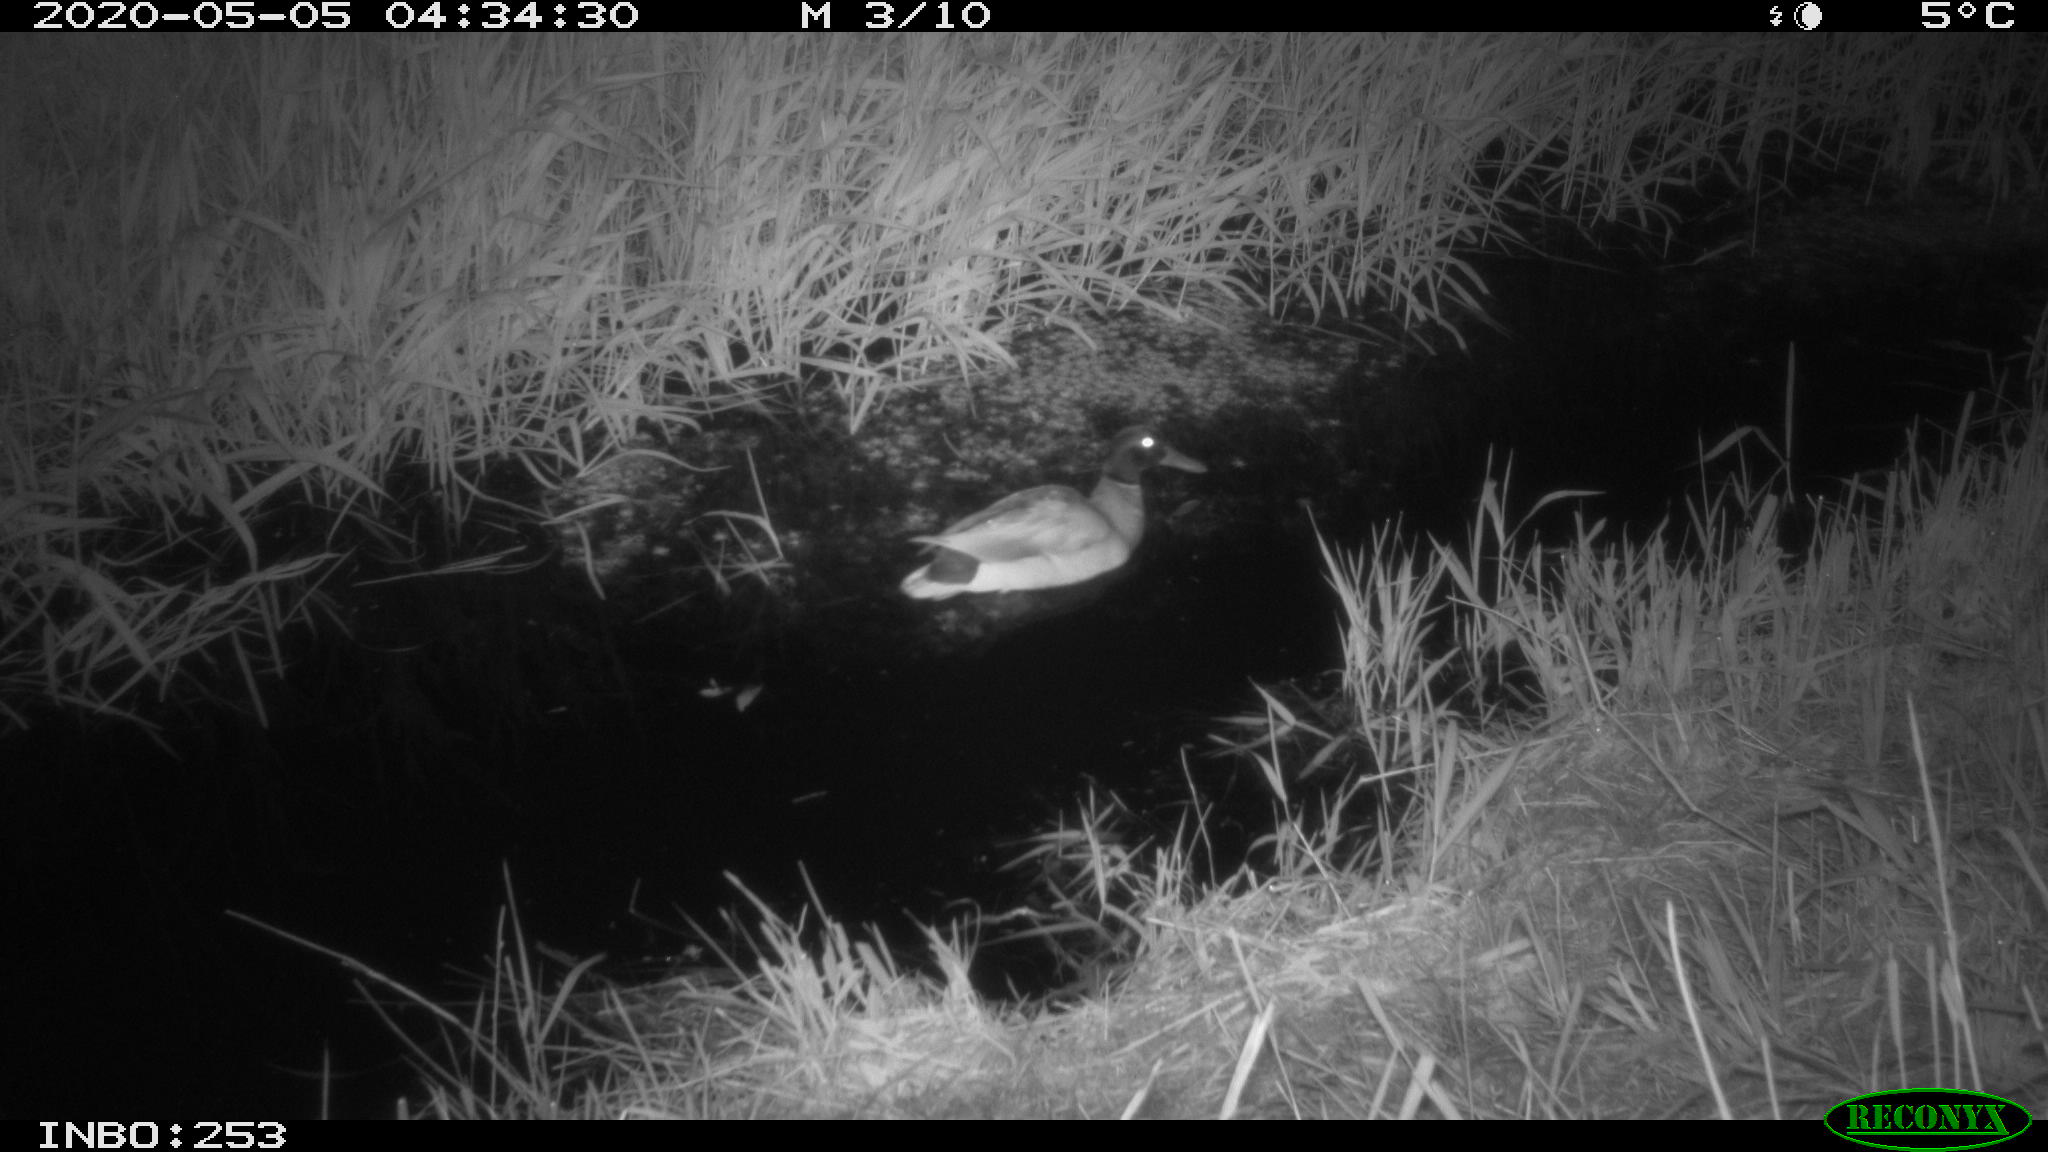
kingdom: Animalia
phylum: Chordata
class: Aves
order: Anseriformes
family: Anatidae
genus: Anas
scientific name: Anas platyrhynchos
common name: Mallard
